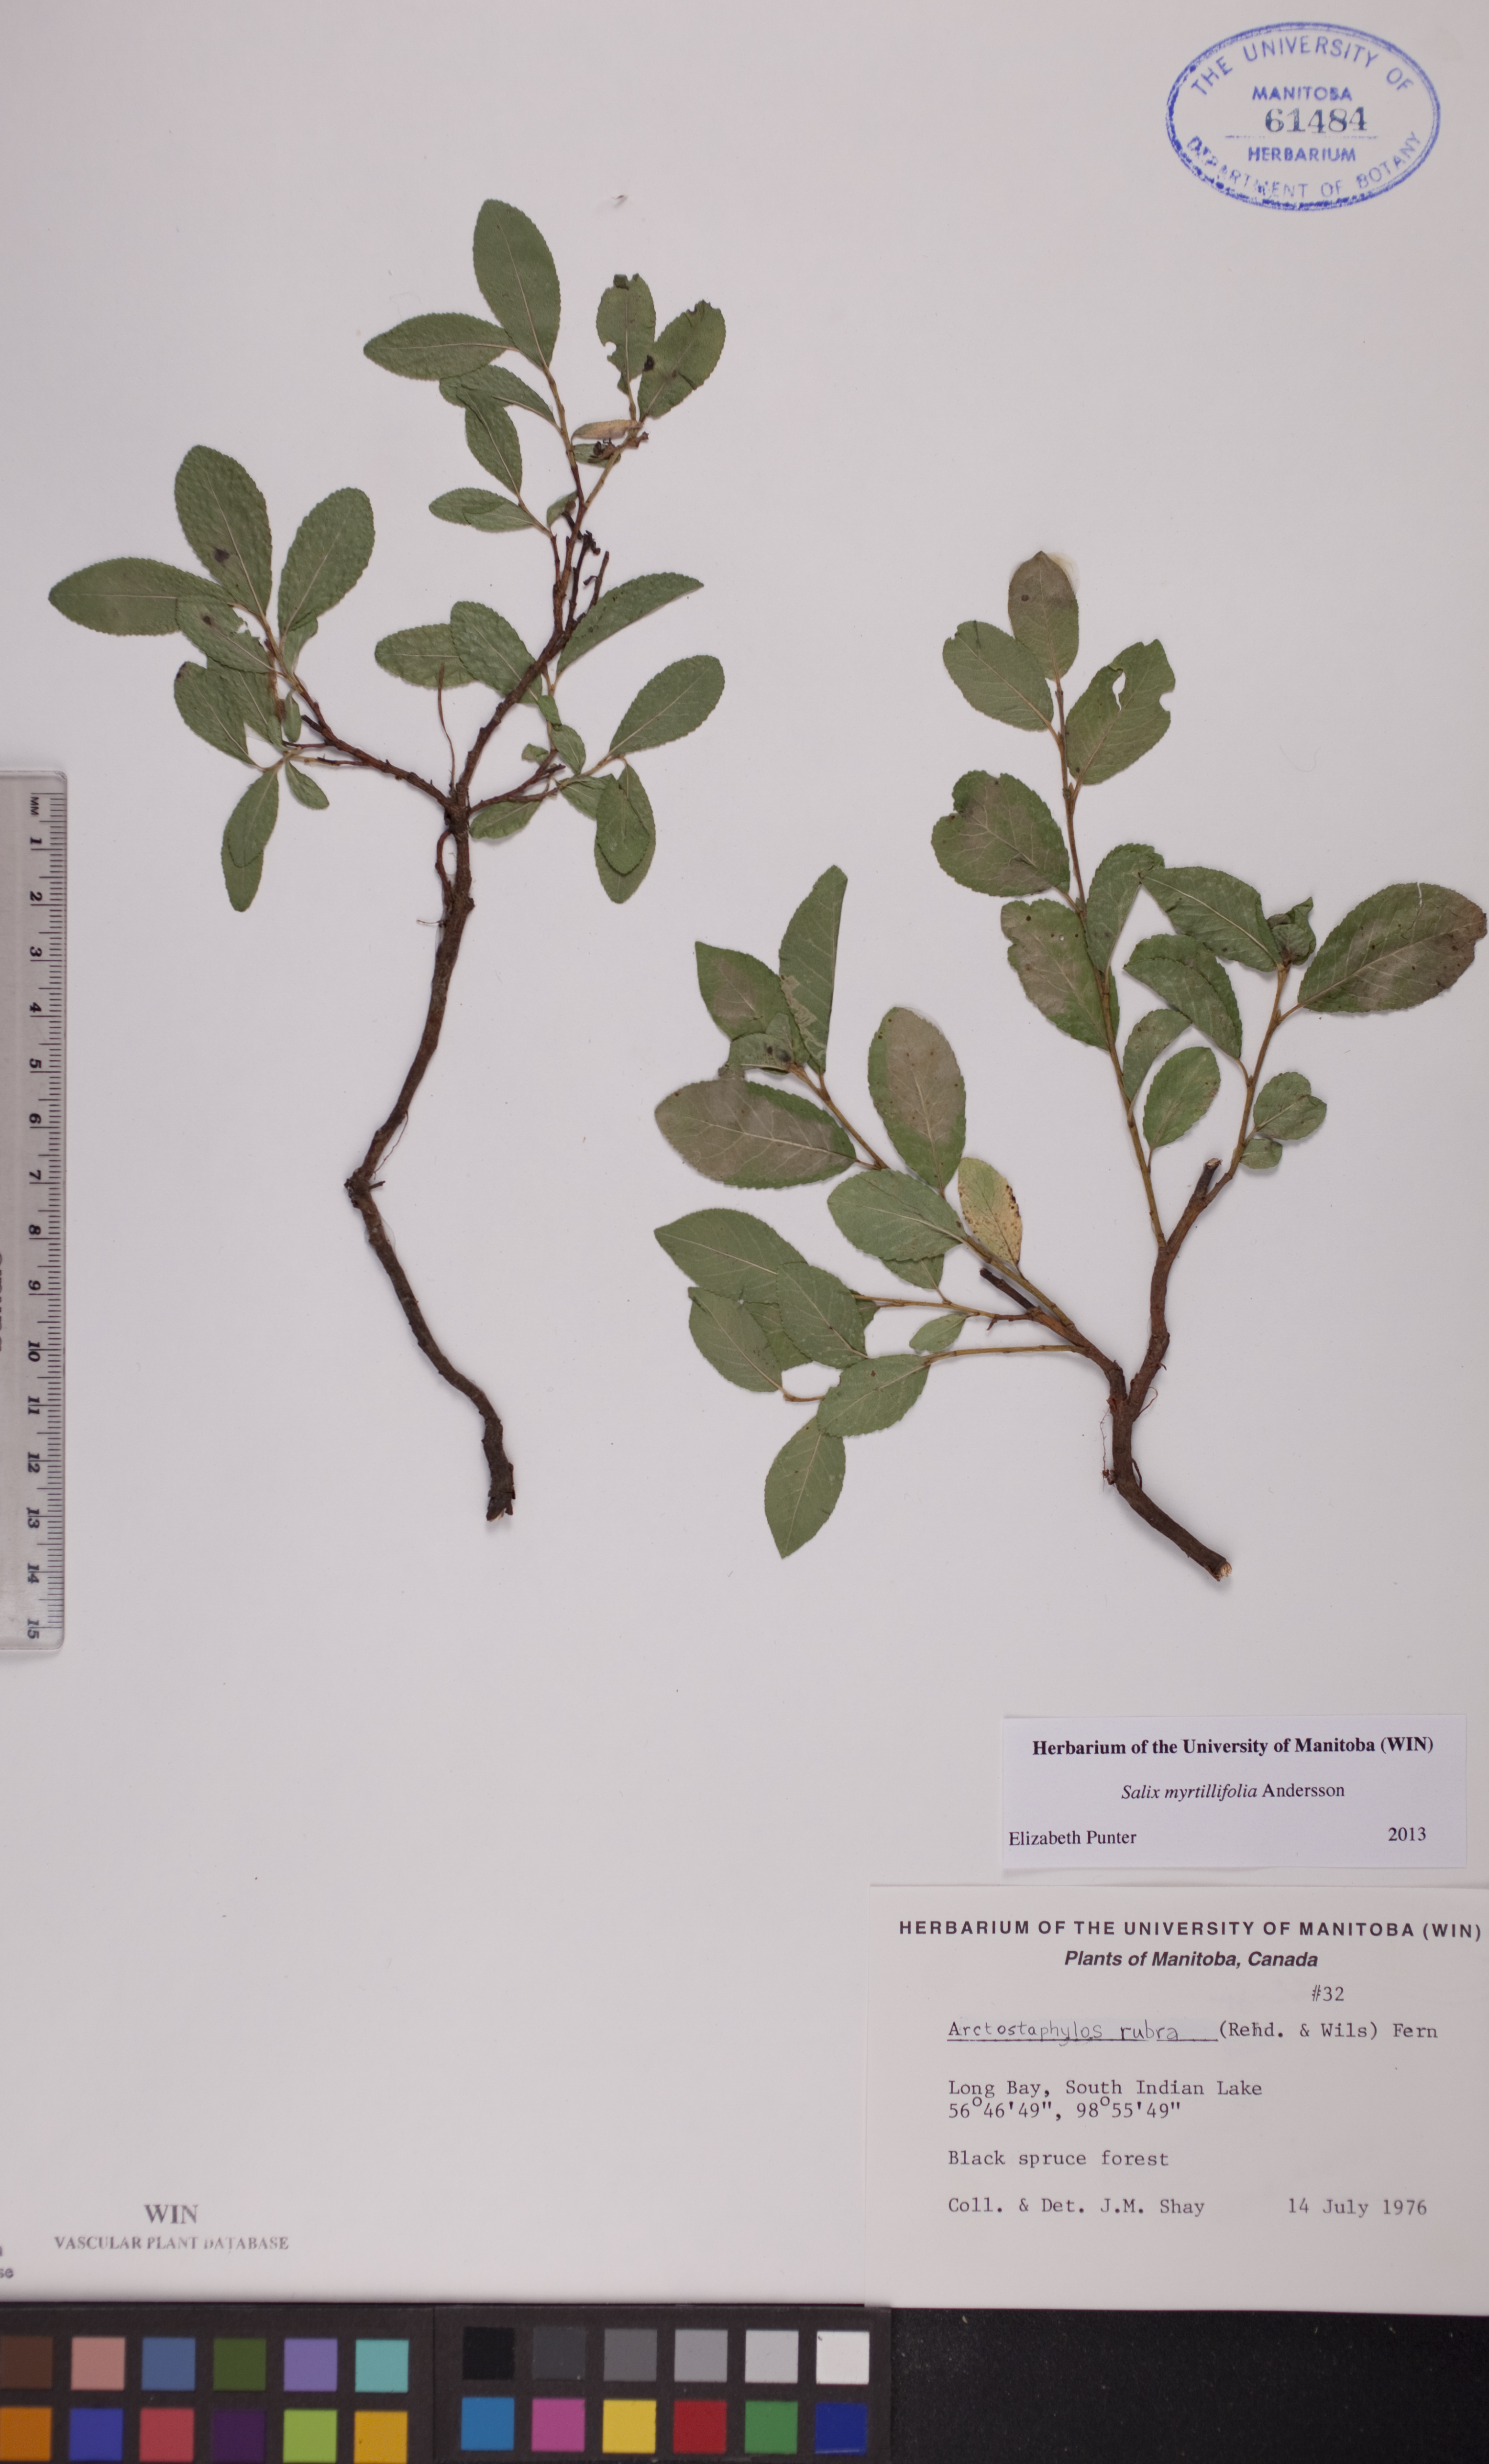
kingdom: Plantae
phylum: Tracheophyta
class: Magnoliopsida
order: Malpighiales
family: Salicaceae
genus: Salix
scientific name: Salix myrtillifolia
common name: Bilberry willow
